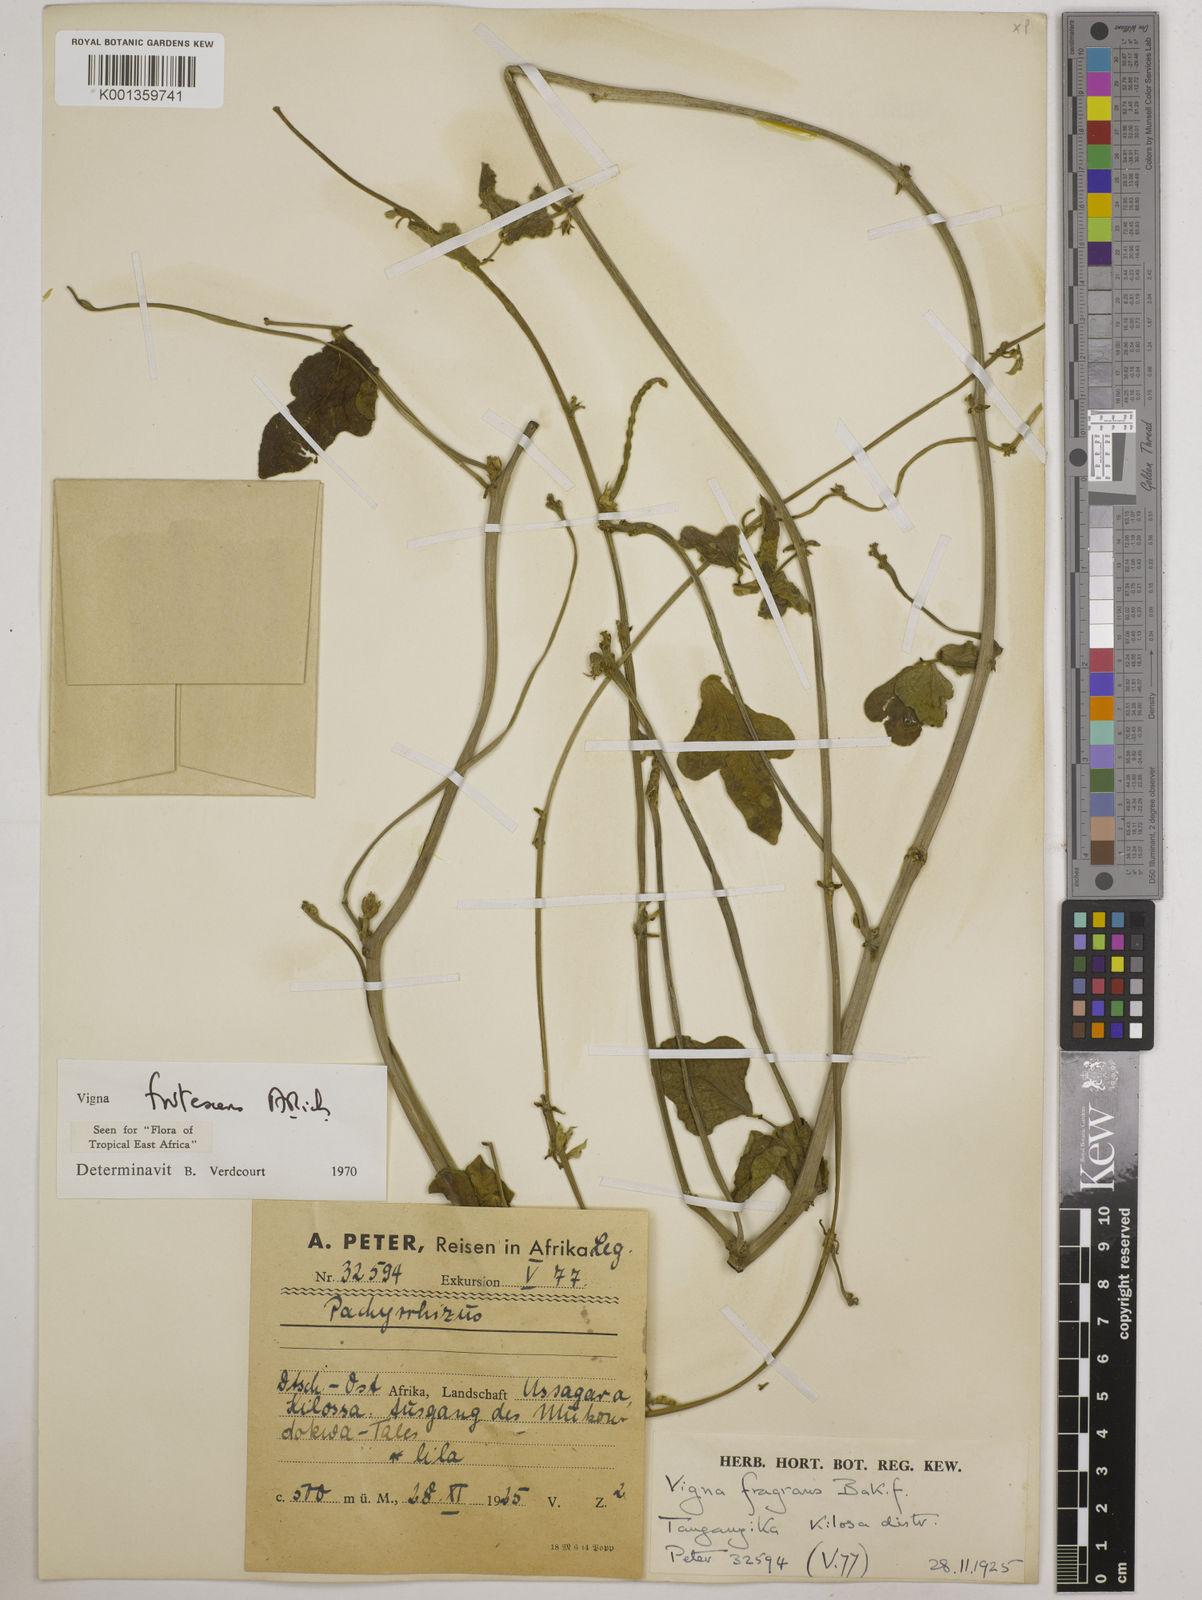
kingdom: Plantae
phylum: Tracheophyta
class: Magnoliopsida
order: Fabales
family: Fabaceae
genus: Vigna
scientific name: Vigna frutescens
